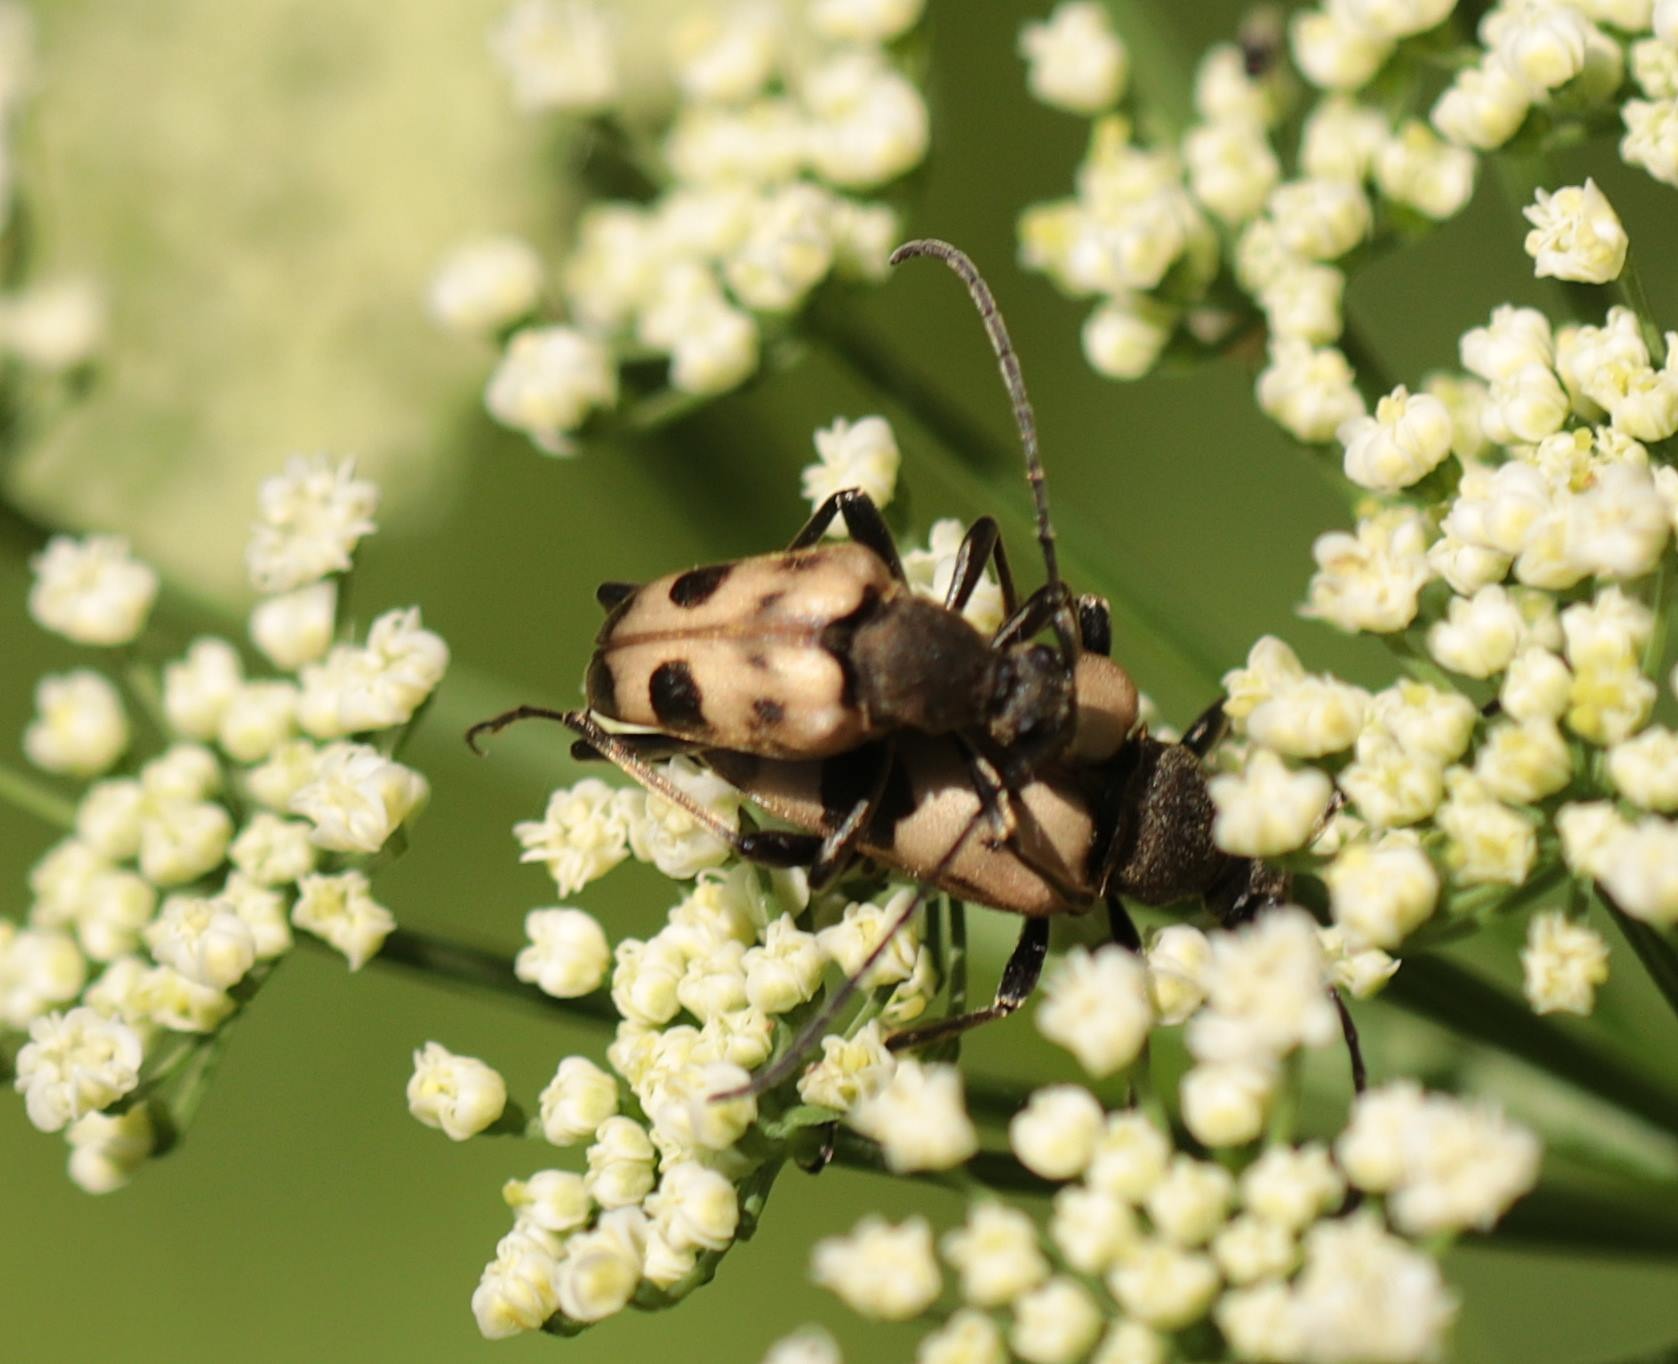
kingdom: Animalia
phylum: Arthropoda
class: Insecta
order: Coleoptera
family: Cerambycidae
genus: Pachytodes
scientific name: Pachytodes cerambyciformis
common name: Jysk blomsterbuk
